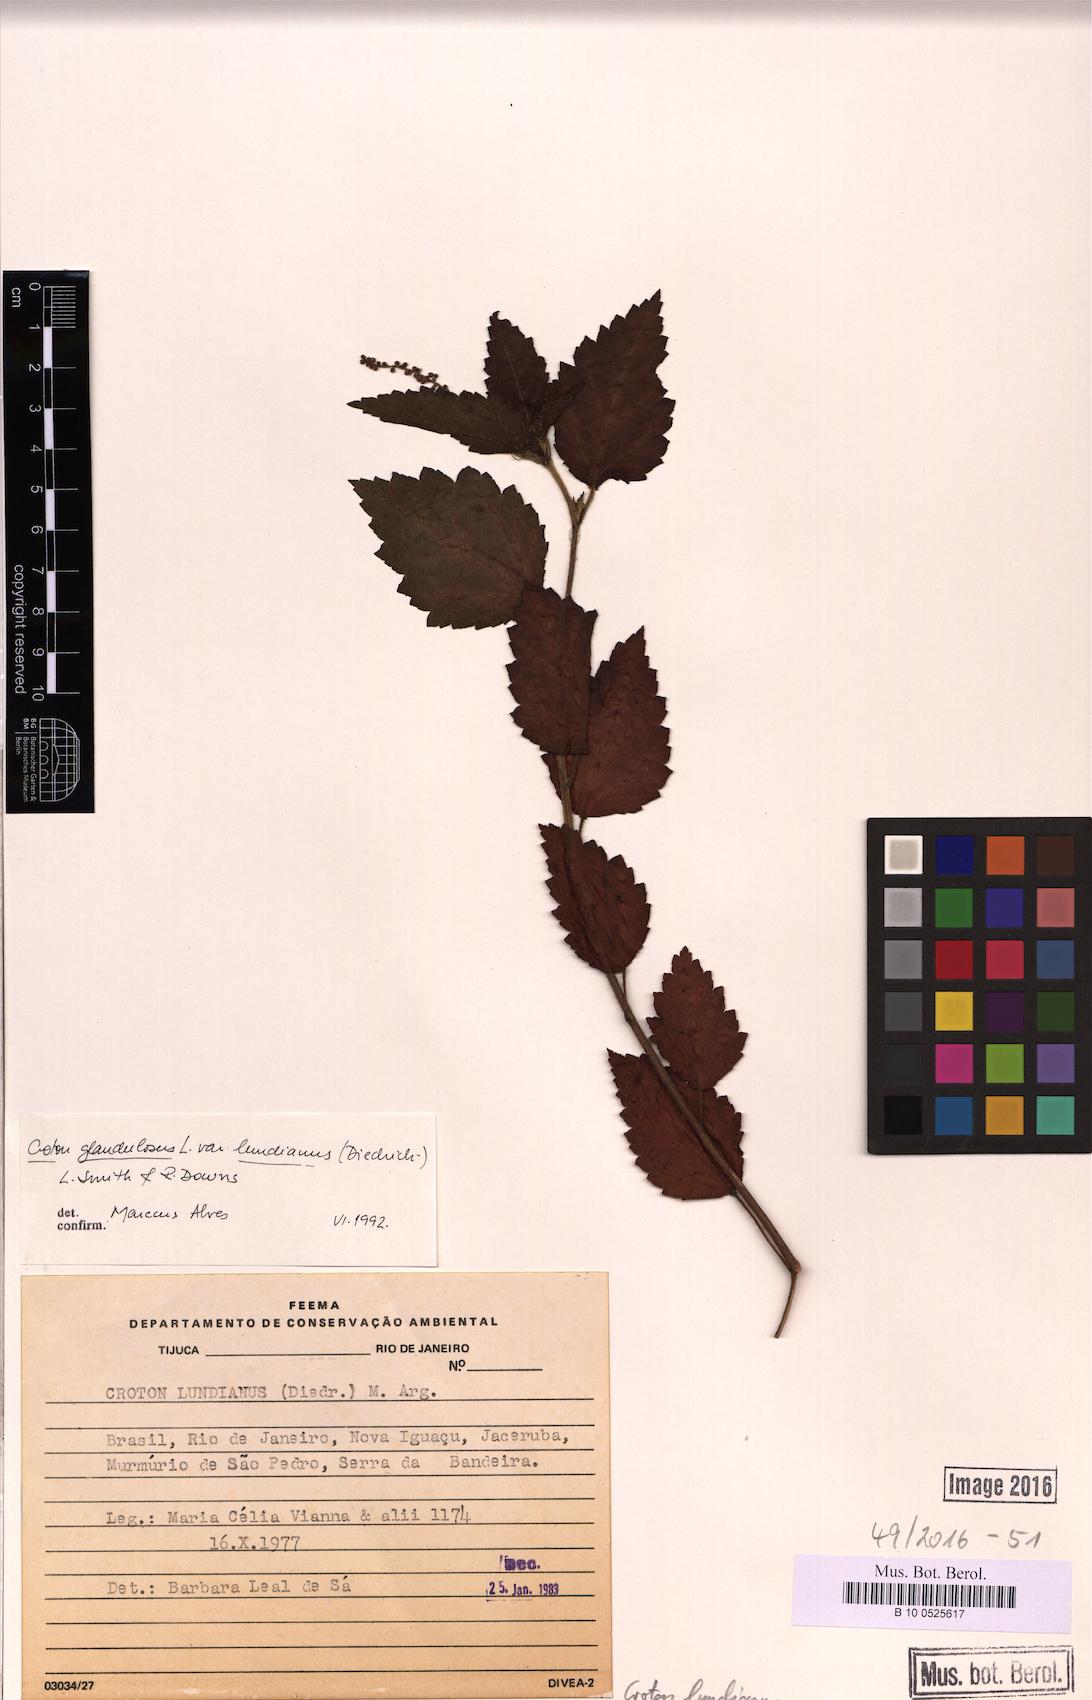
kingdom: Plantae
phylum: Tracheophyta
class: Magnoliopsida
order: Malpighiales
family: Euphorbiaceae
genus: Croton
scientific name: Croton lundianus
